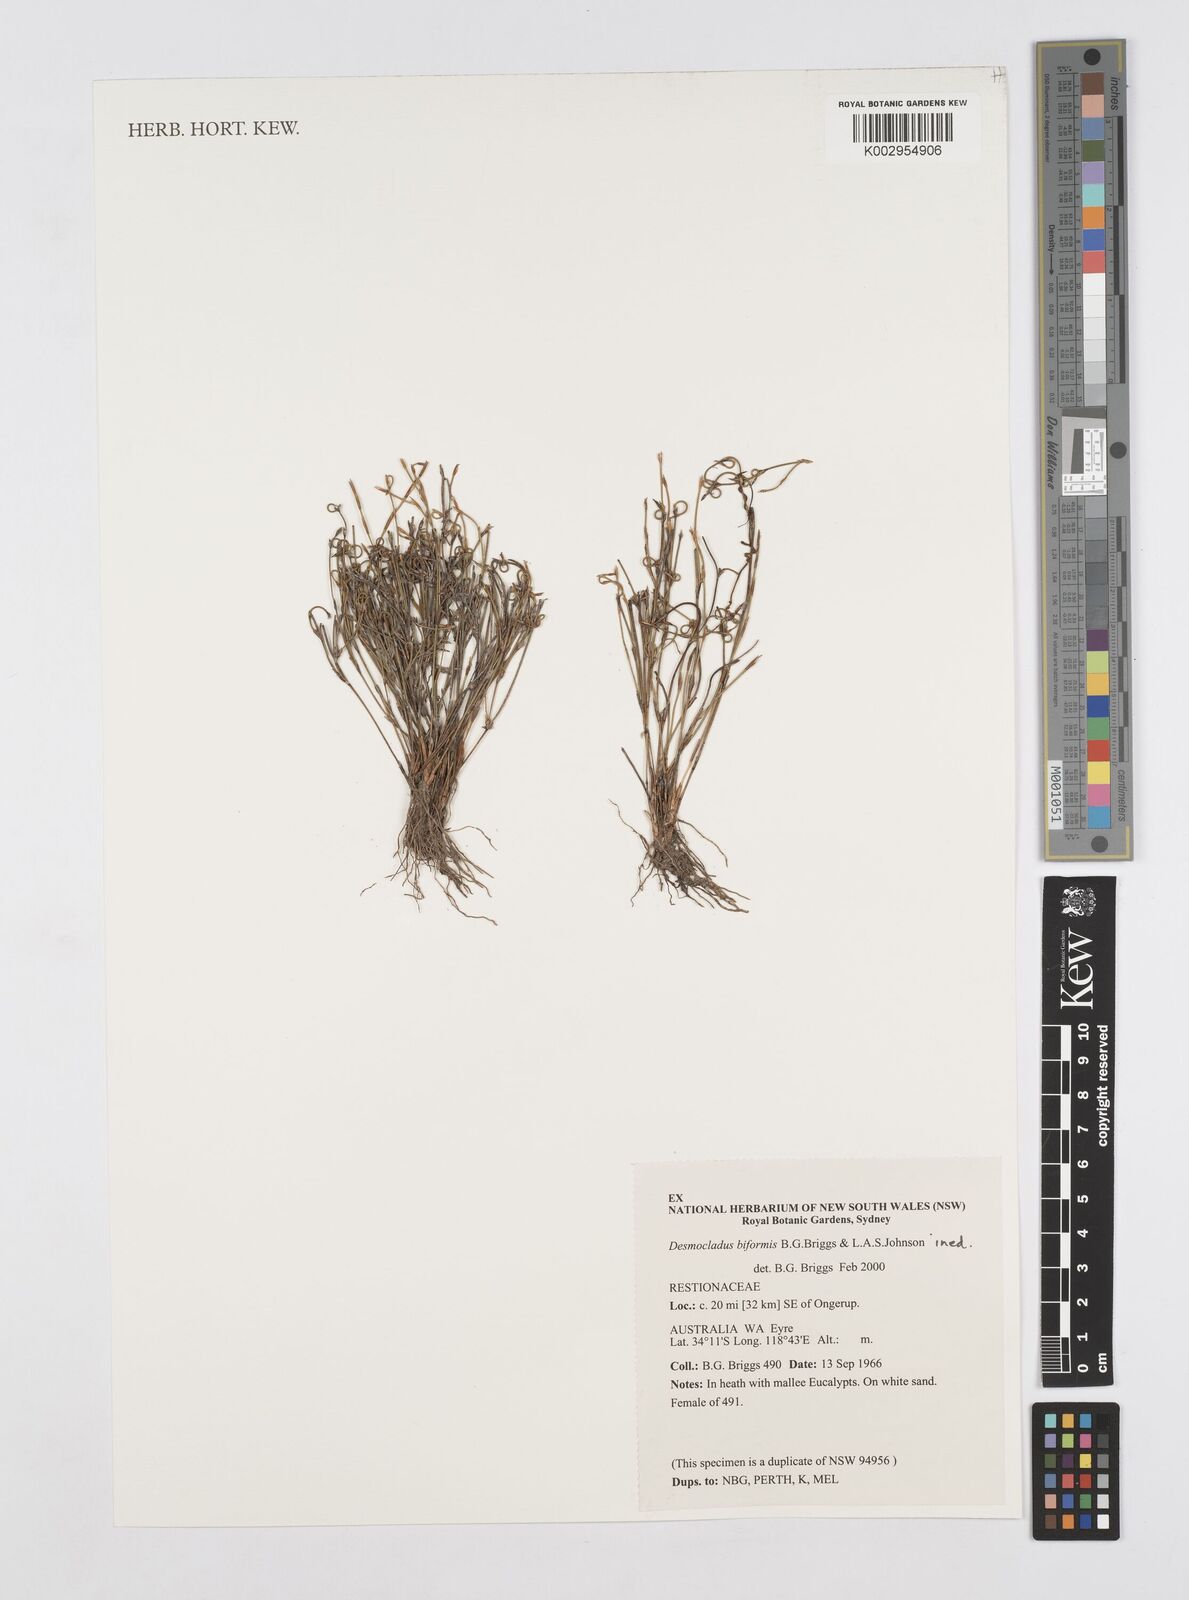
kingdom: Plantae
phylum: Tracheophyta
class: Liliopsida
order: Poales
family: Restionaceae
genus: Desmocladus
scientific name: Desmocladus biformis
